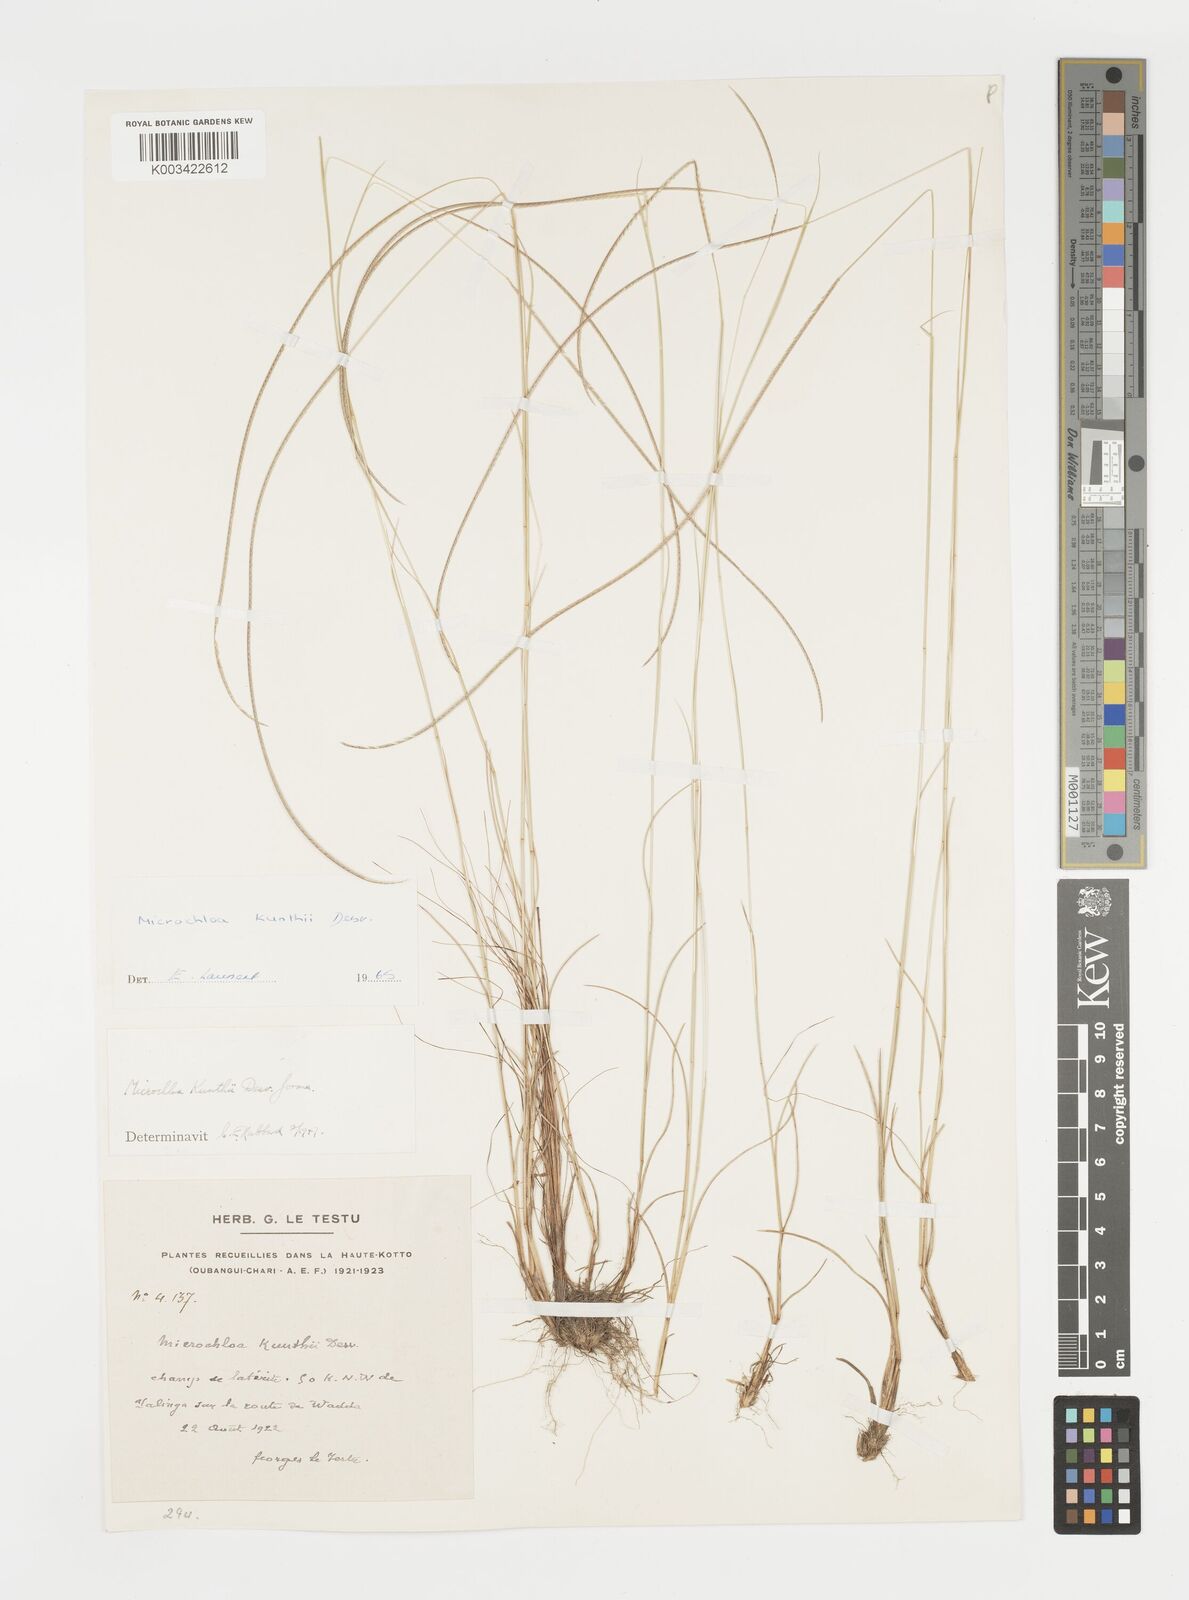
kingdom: Plantae
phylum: Tracheophyta
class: Liliopsida
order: Poales
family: Poaceae
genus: Microchloa
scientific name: Microchloa kunthii
